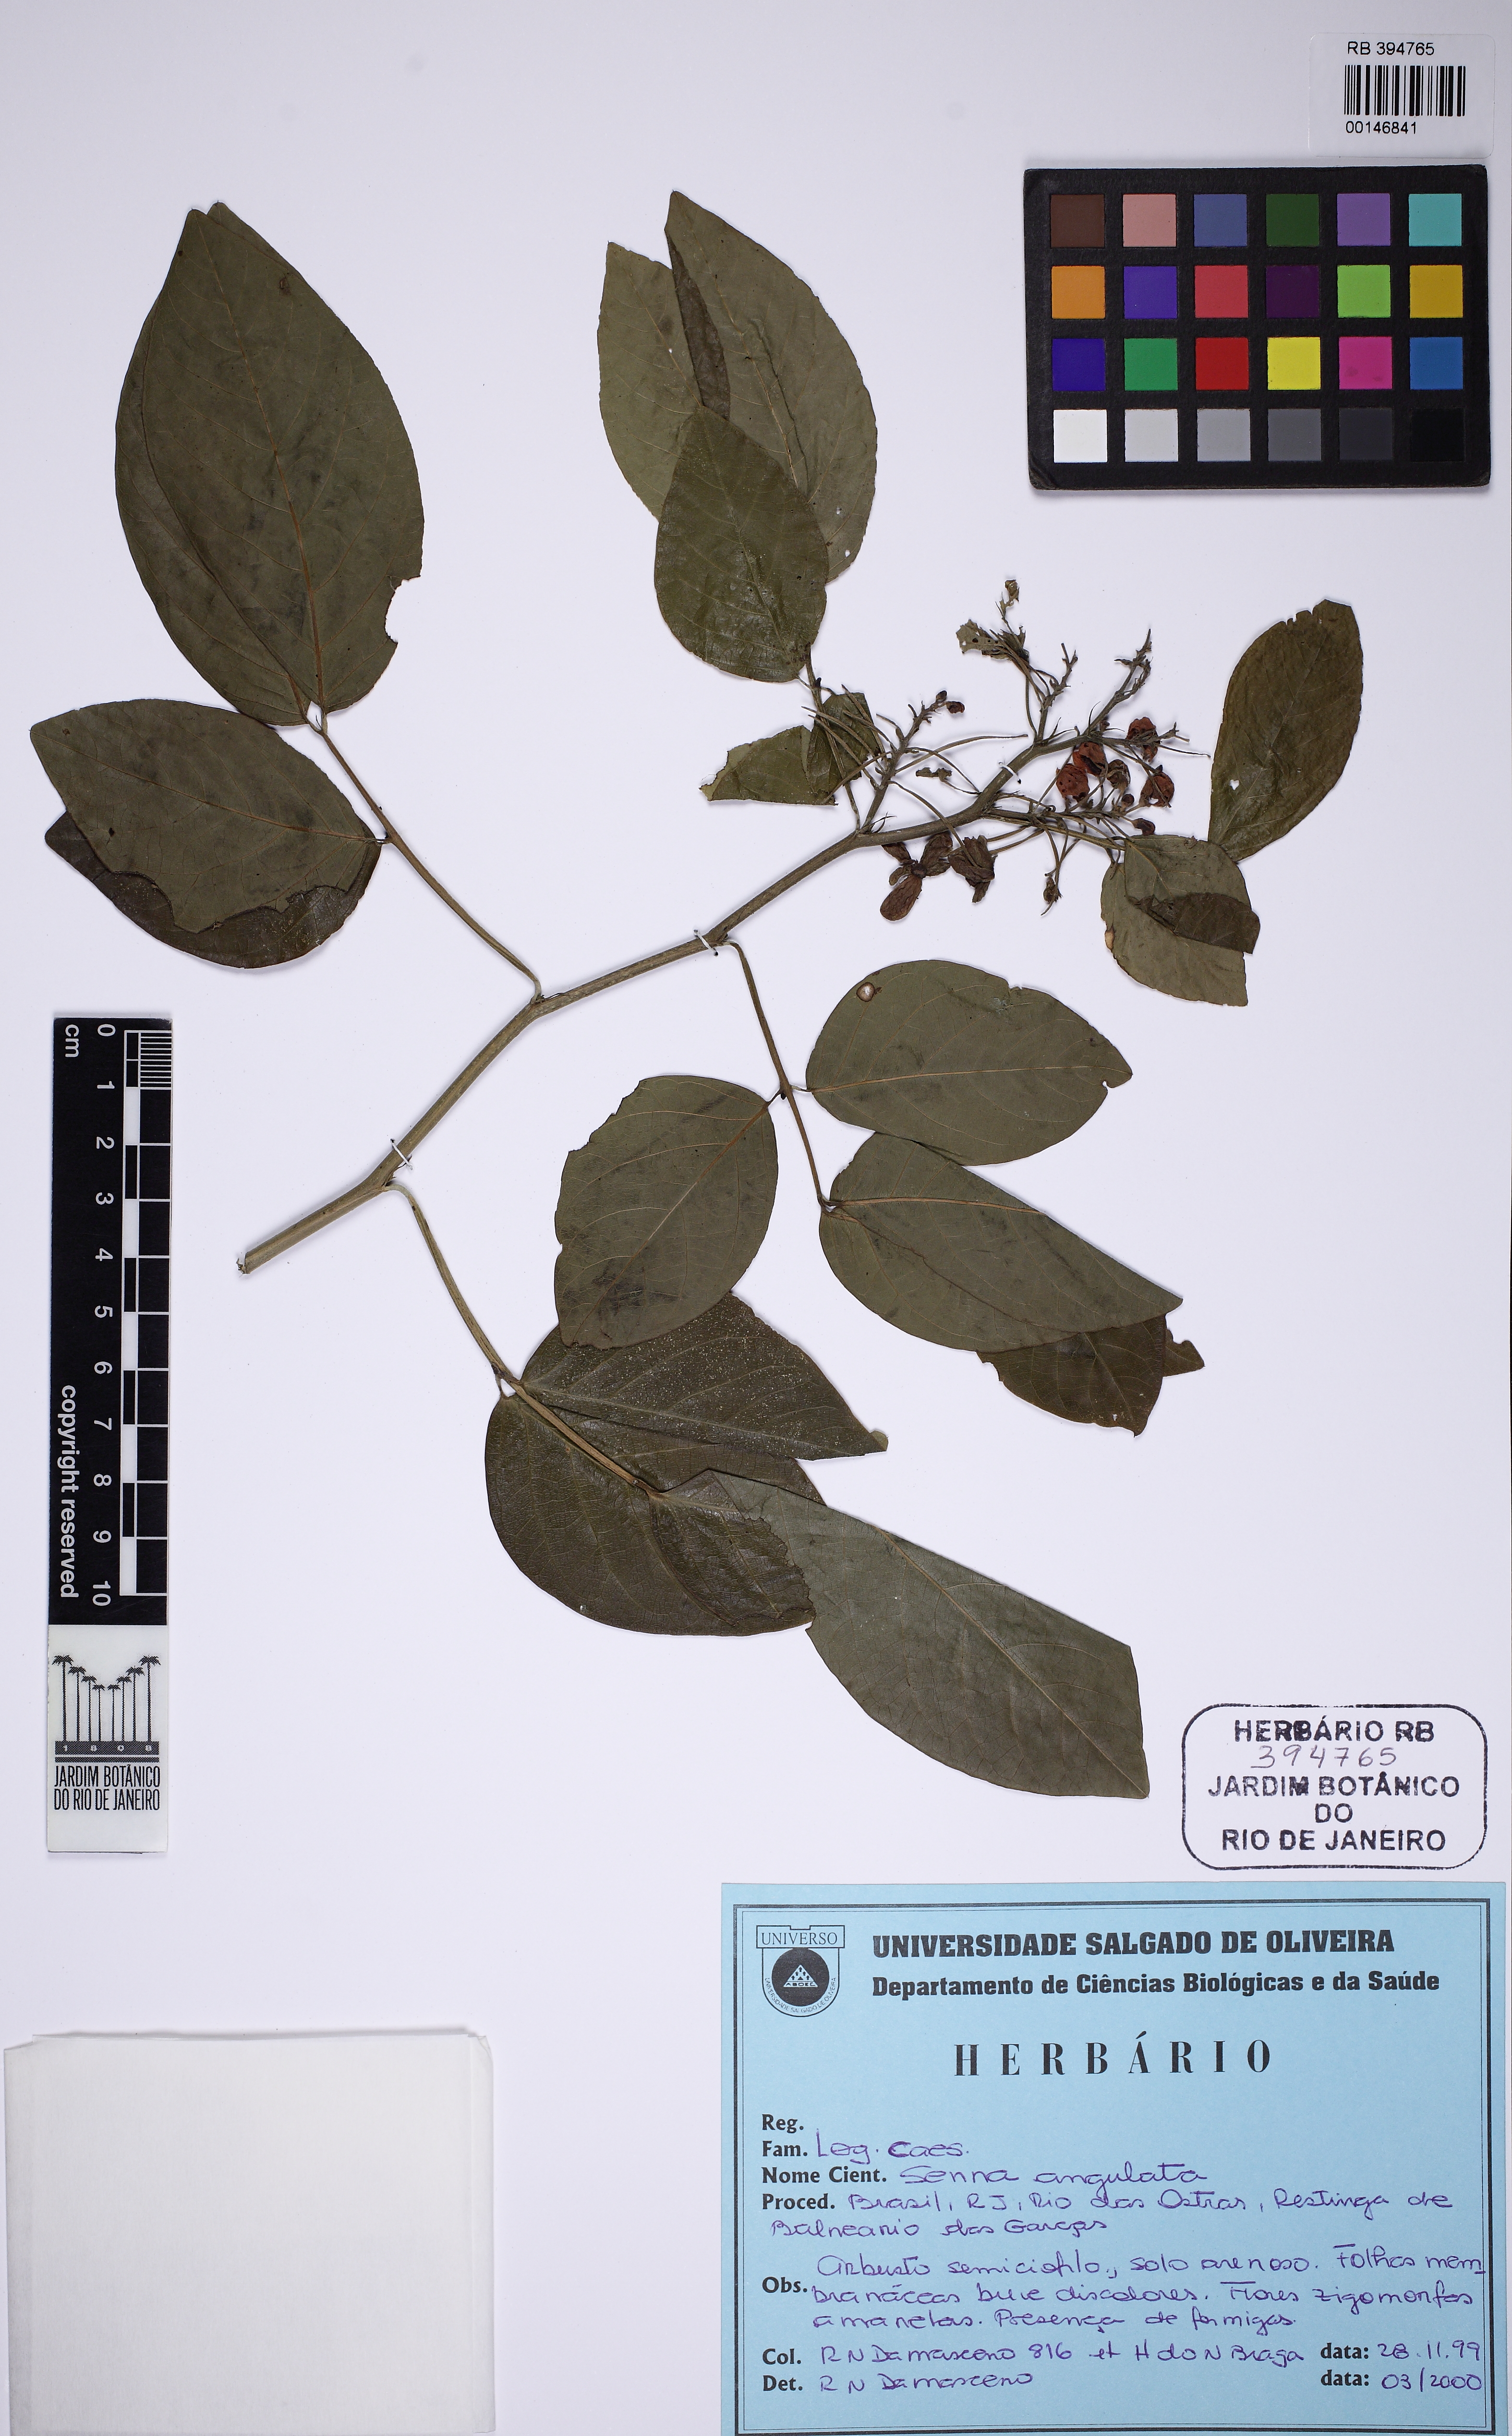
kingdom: Plantae
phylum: Tracheophyta
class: Magnoliopsida
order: Fabales
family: Fabaceae
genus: Senna
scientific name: Senna affinis
